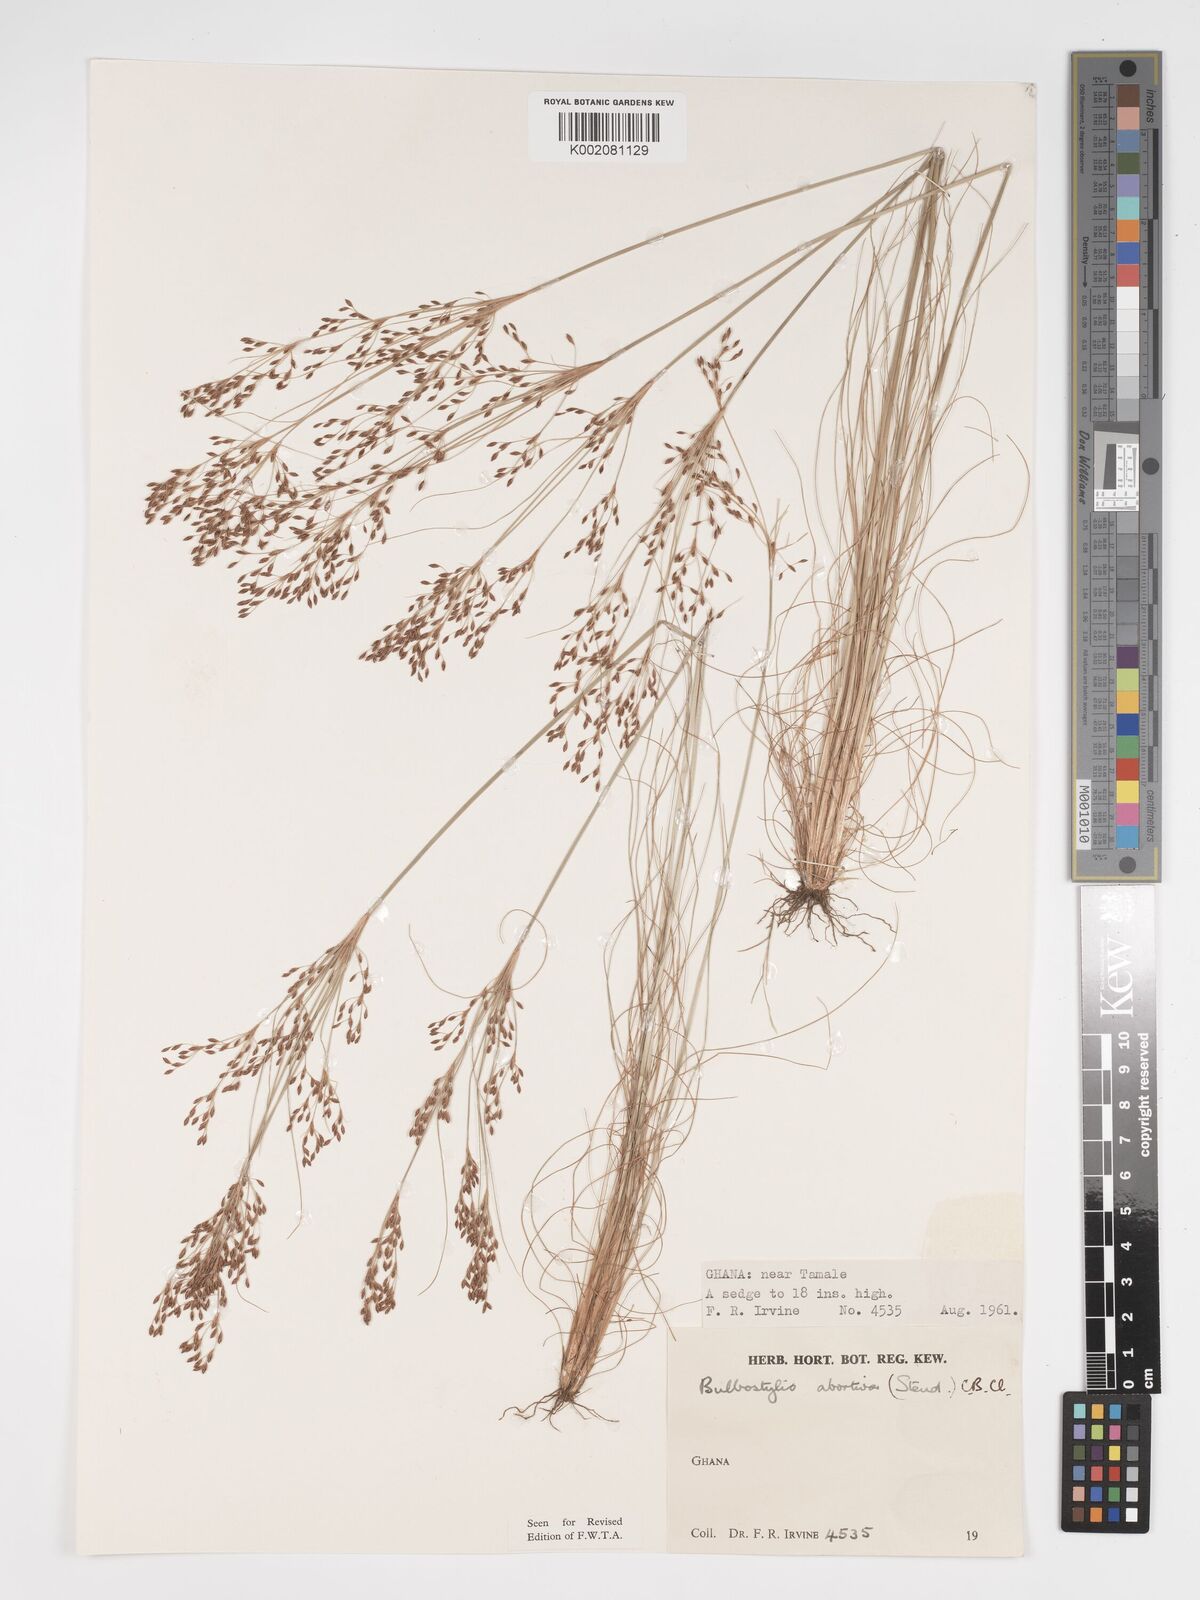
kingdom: Plantae
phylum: Tracheophyta
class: Liliopsida
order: Poales
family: Cyperaceae
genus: Bulbostylis
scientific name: Bulbostylis abortiva
